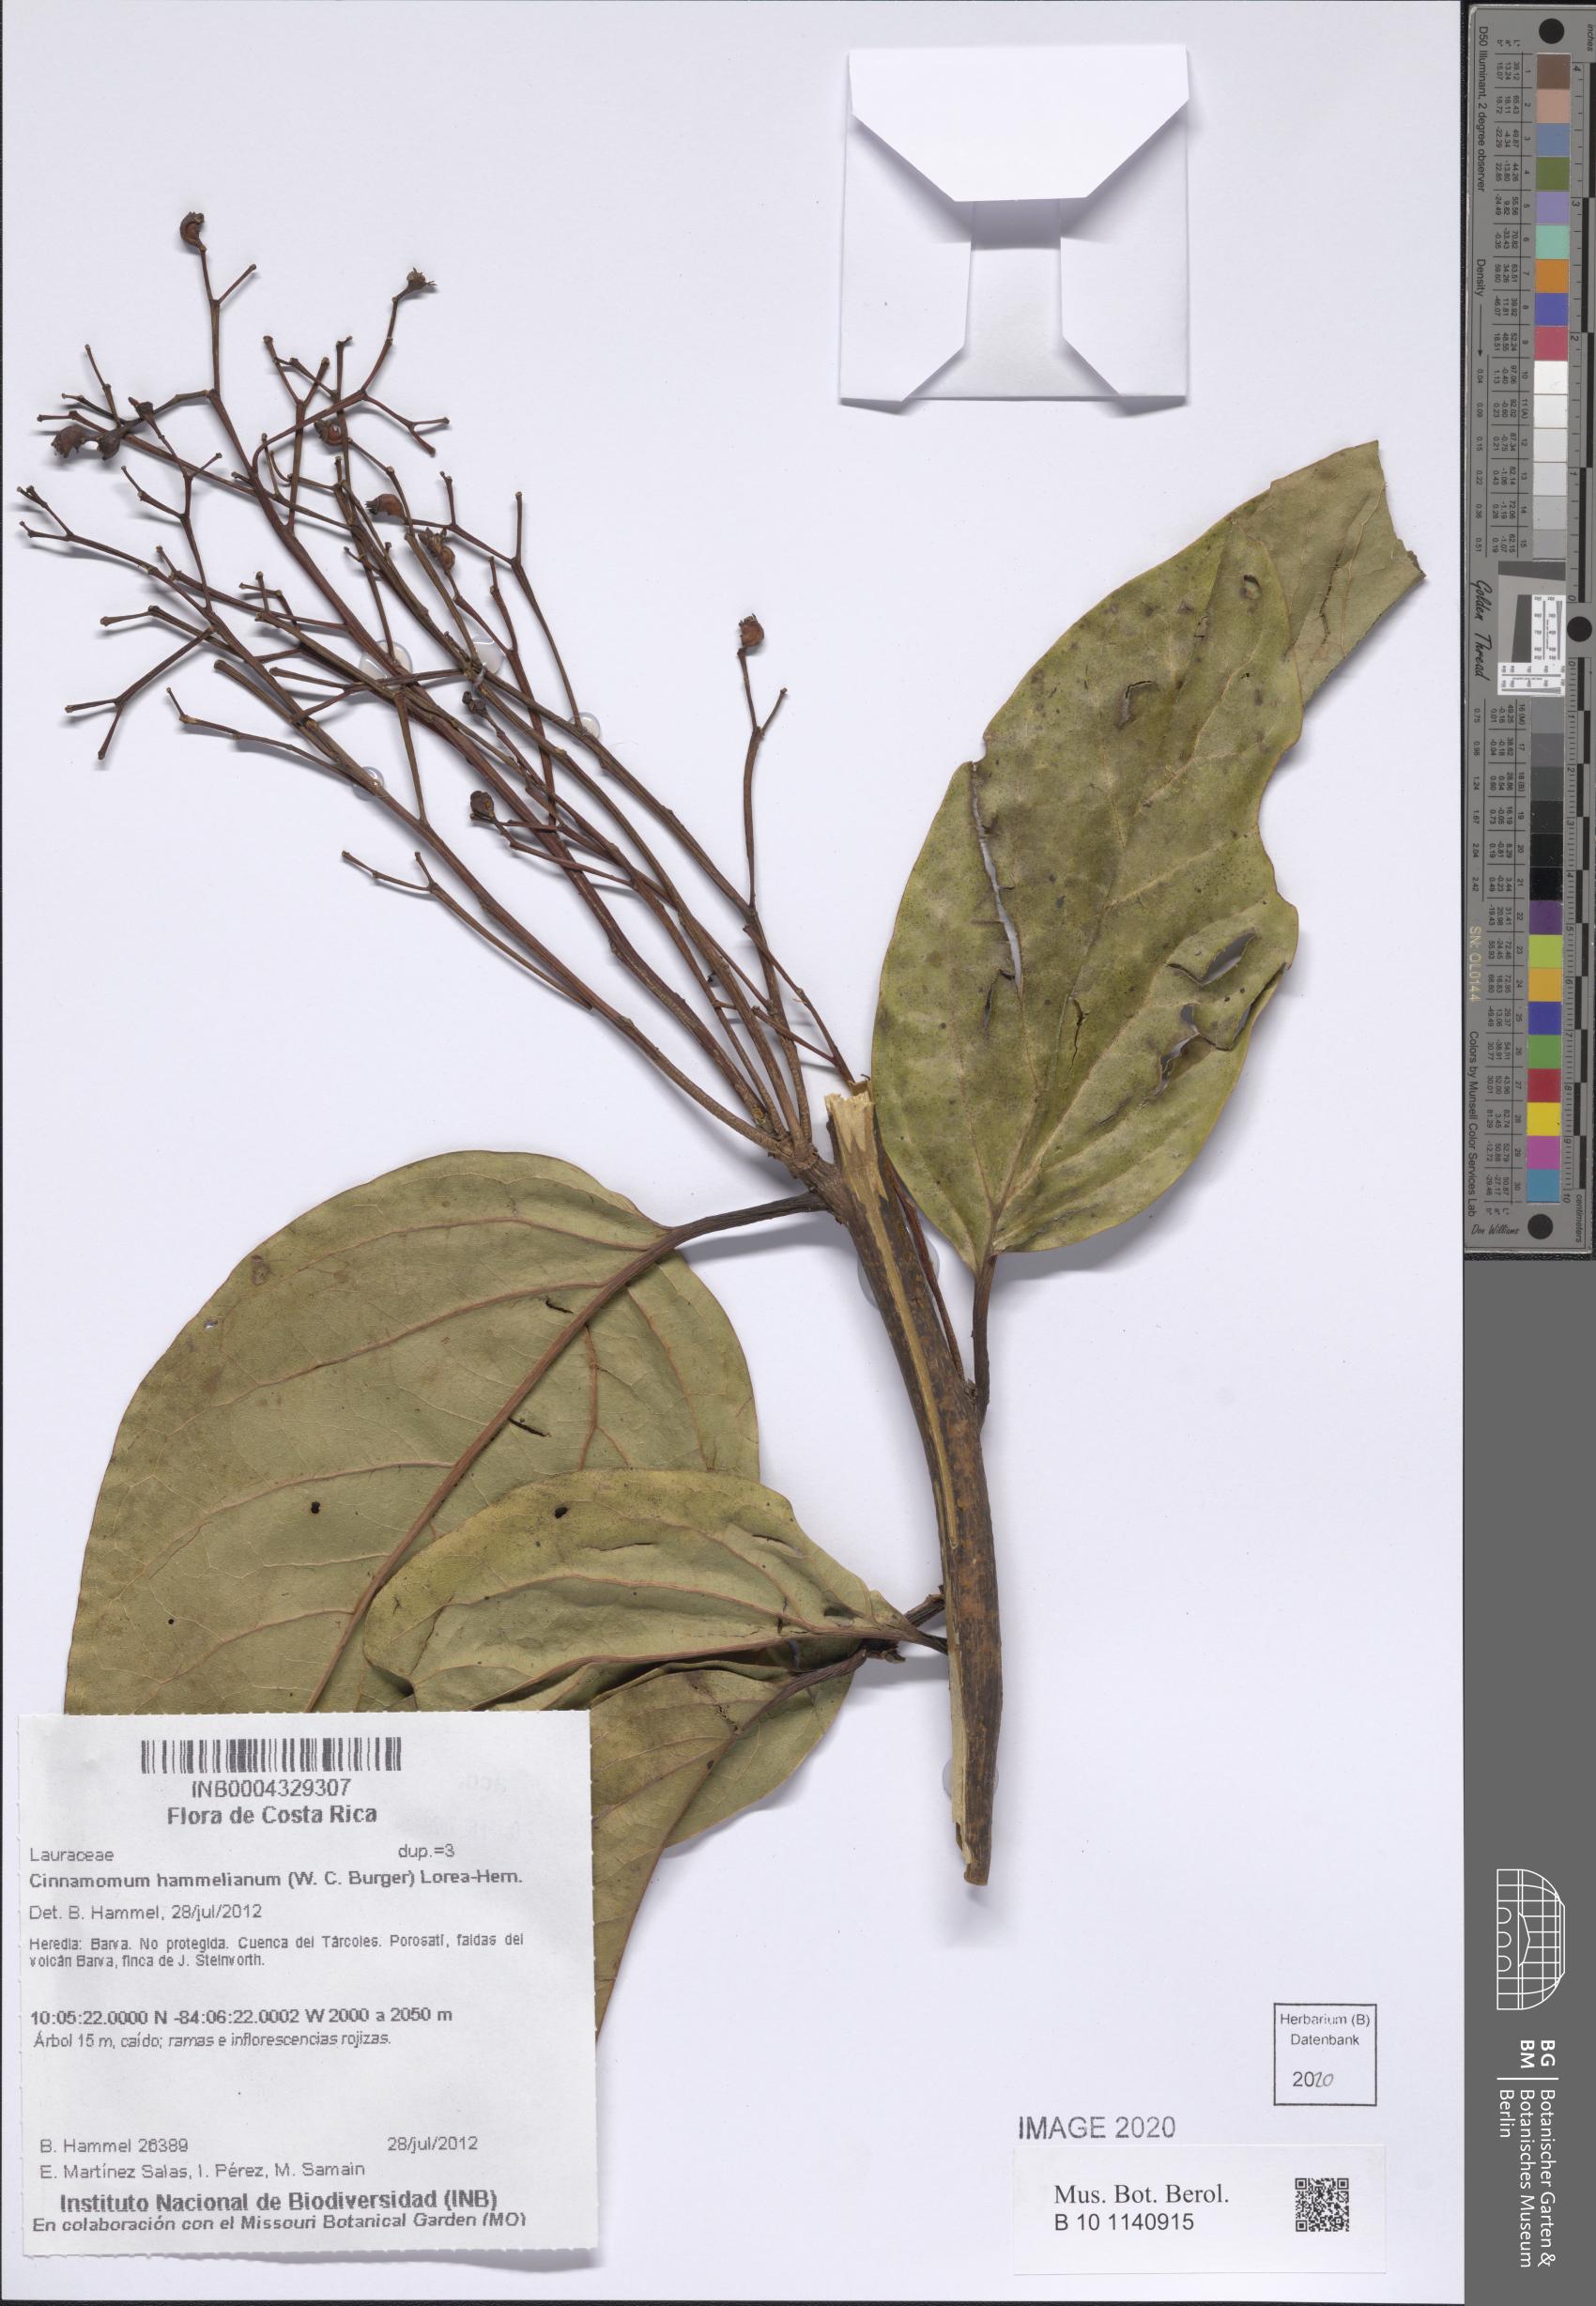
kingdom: Plantae
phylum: Tracheophyta
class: Magnoliopsida
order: Laurales
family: Lauraceae
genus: Aiouea
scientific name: Aiouea hammeliana
